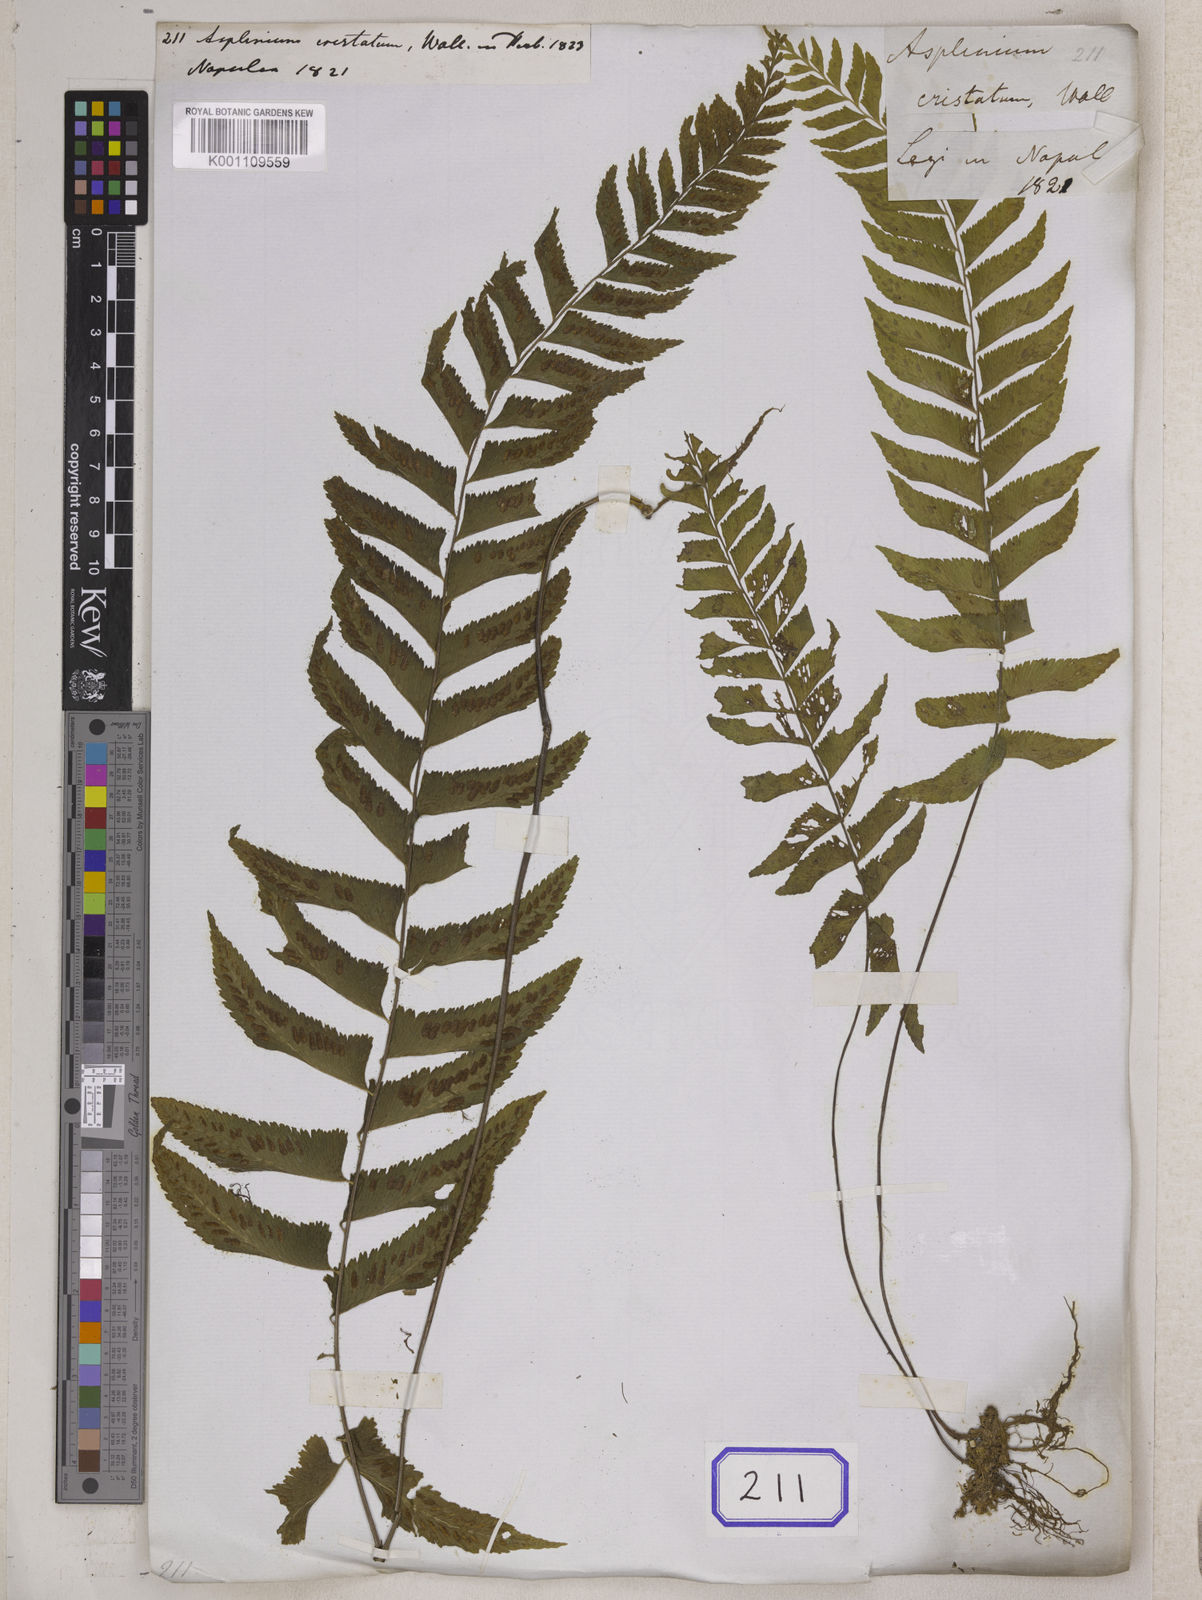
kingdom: Plantae
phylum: Tracheophyta
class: Polypodiopsida
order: Polypodiales
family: Aspleniaceae
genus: Hymenasplenium
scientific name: Hymenasplenium obscurum
